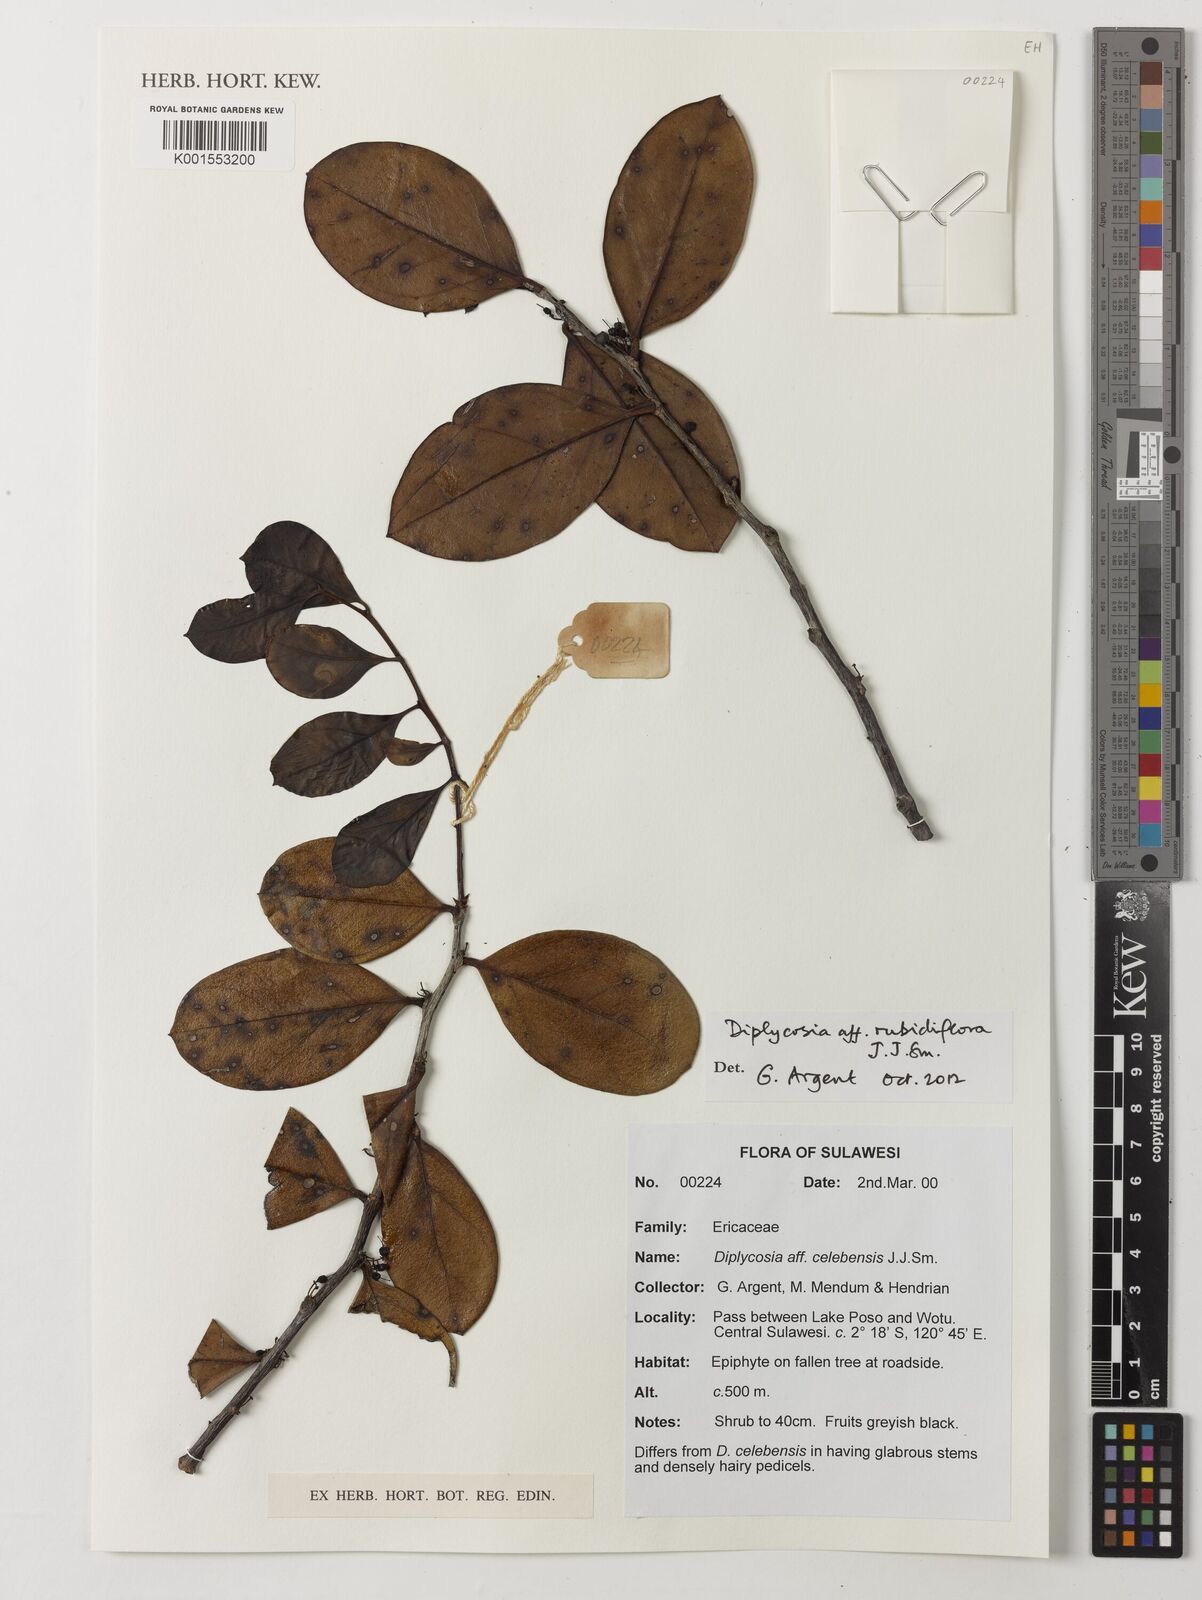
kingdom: Plantae
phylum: Tracheophyta
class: Magnoliopsida
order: Ericales
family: Ericaceae
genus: Gaultheria
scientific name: Gaultheria rubidiflora
